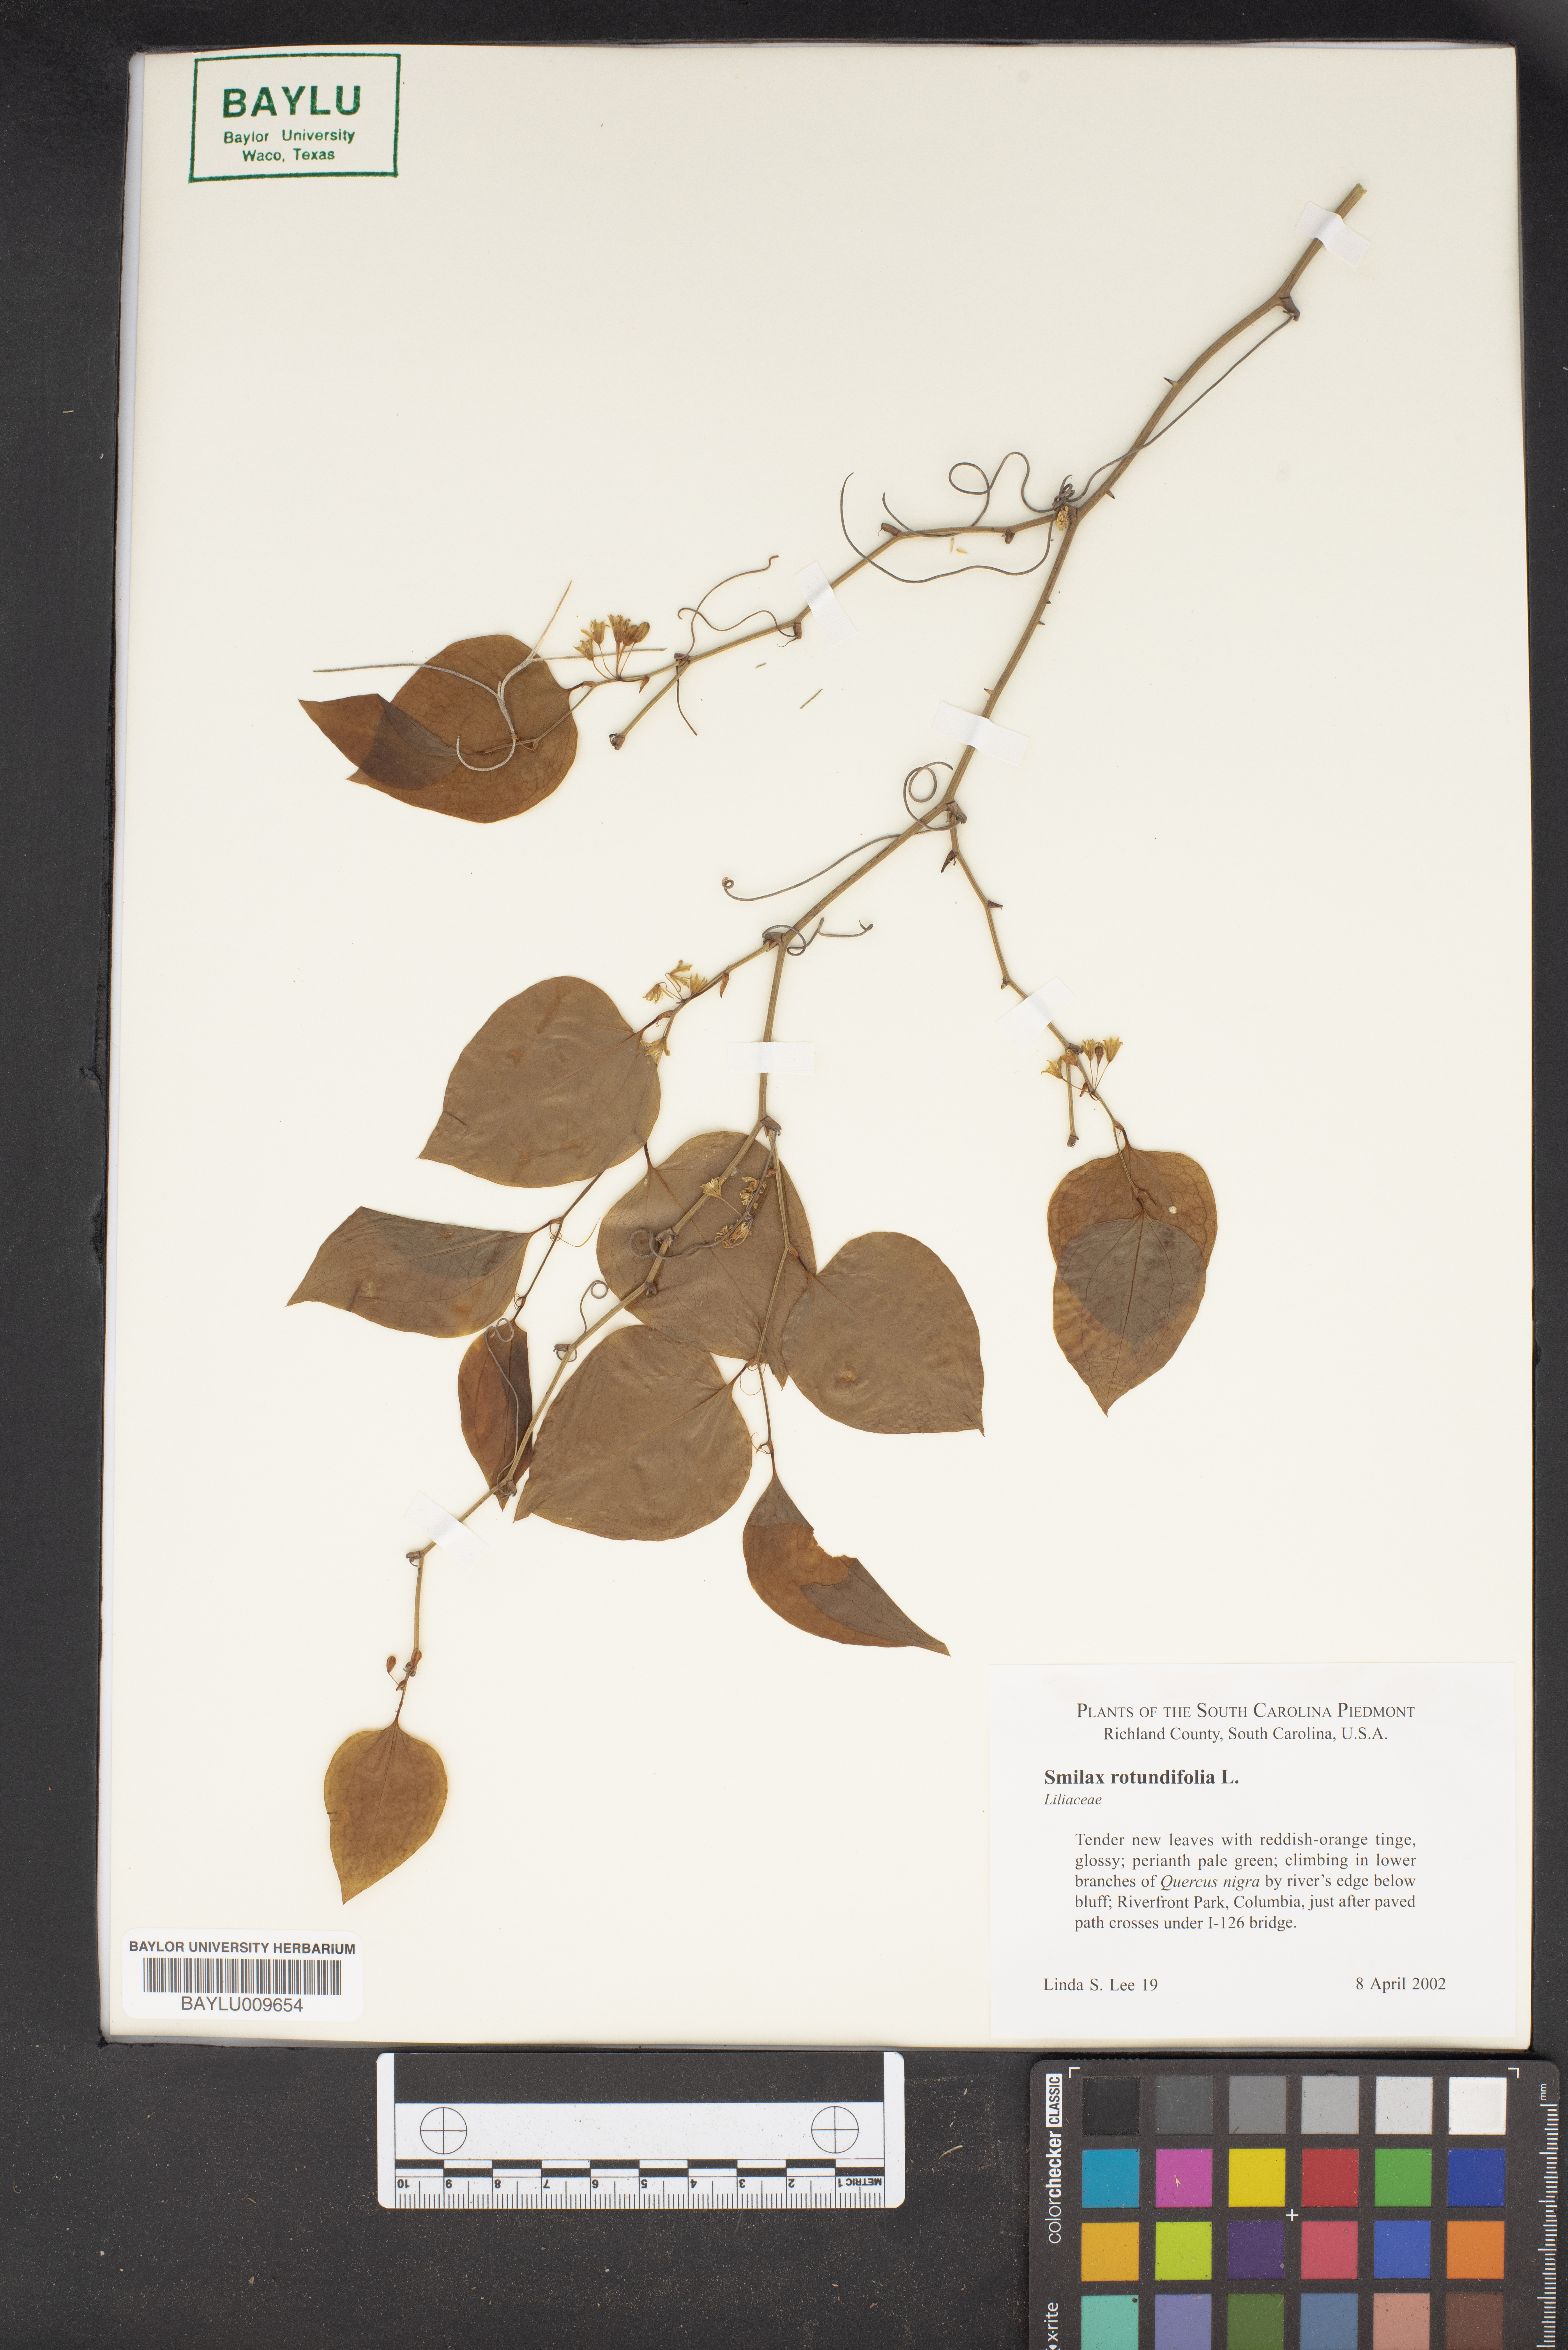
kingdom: Plantae
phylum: Tracheophyta
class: Liliopsida
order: Liliales
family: Smilacaceae
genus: Smilax
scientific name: Smilax rotundifolia
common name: Bullbriar
